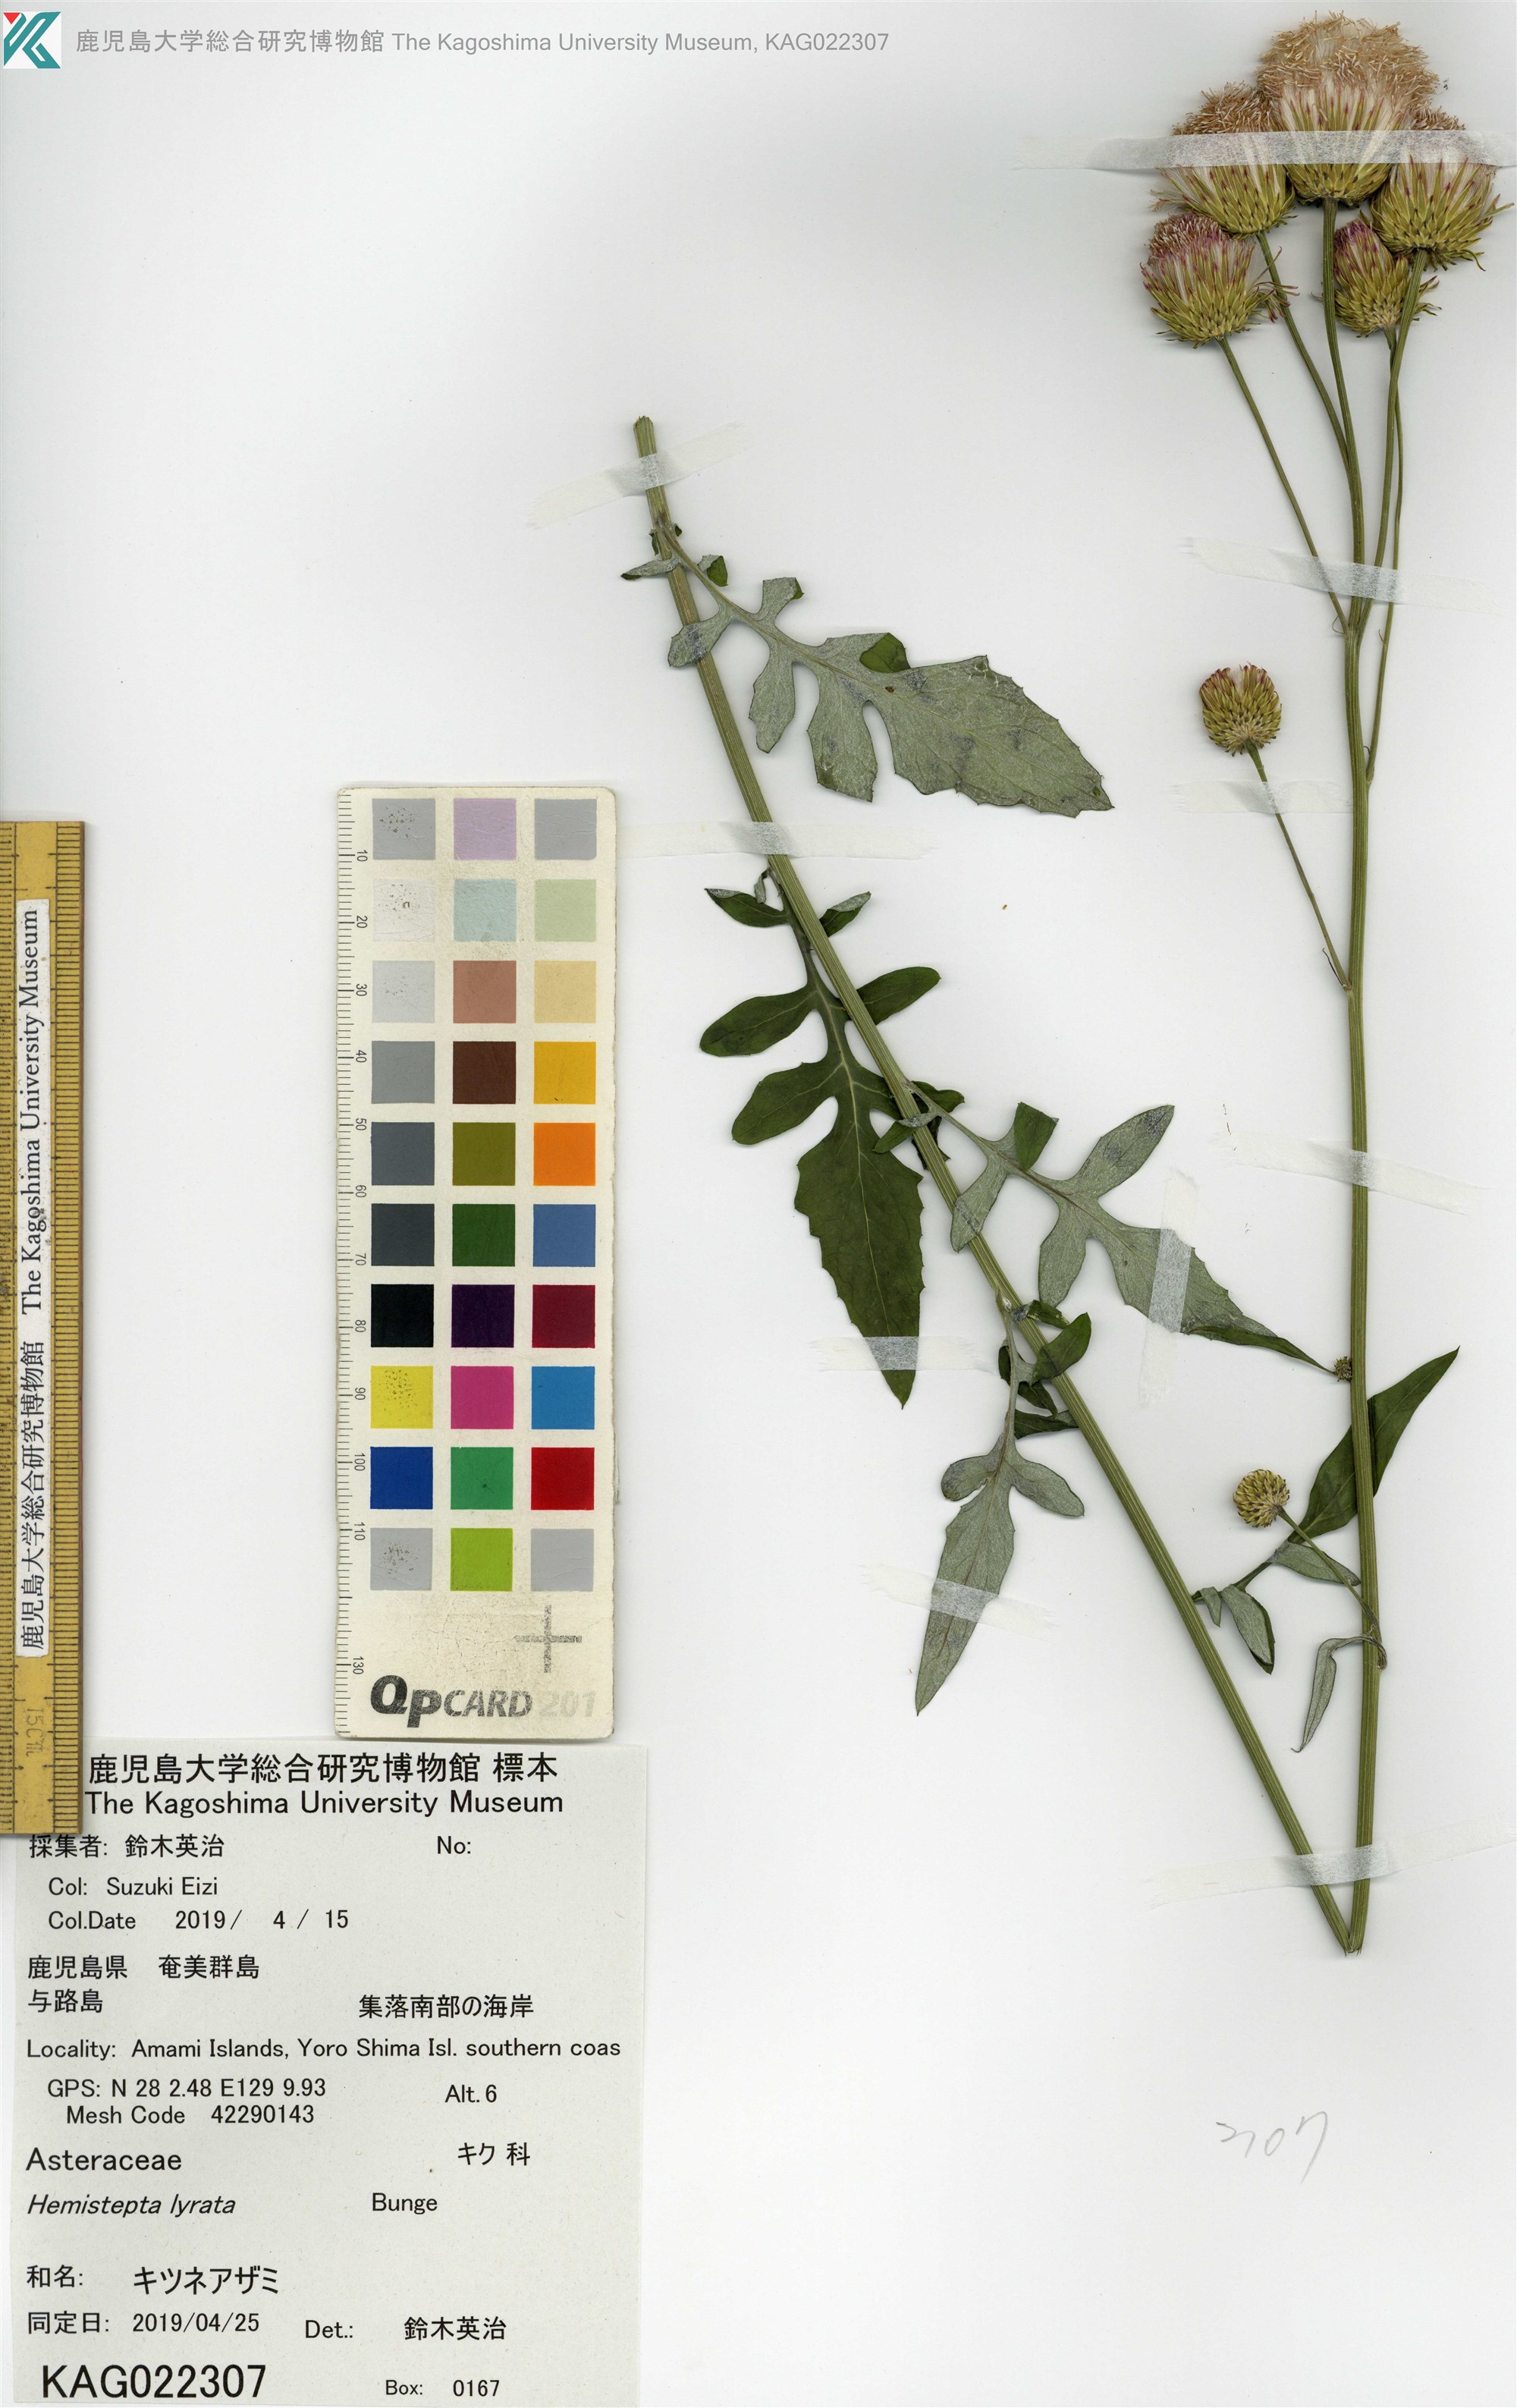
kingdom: Plantae
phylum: Tracheophyta
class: Magnoliopsida
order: Asterales
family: Asteraceae
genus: Saussurea
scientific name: Saussurea lyrata
